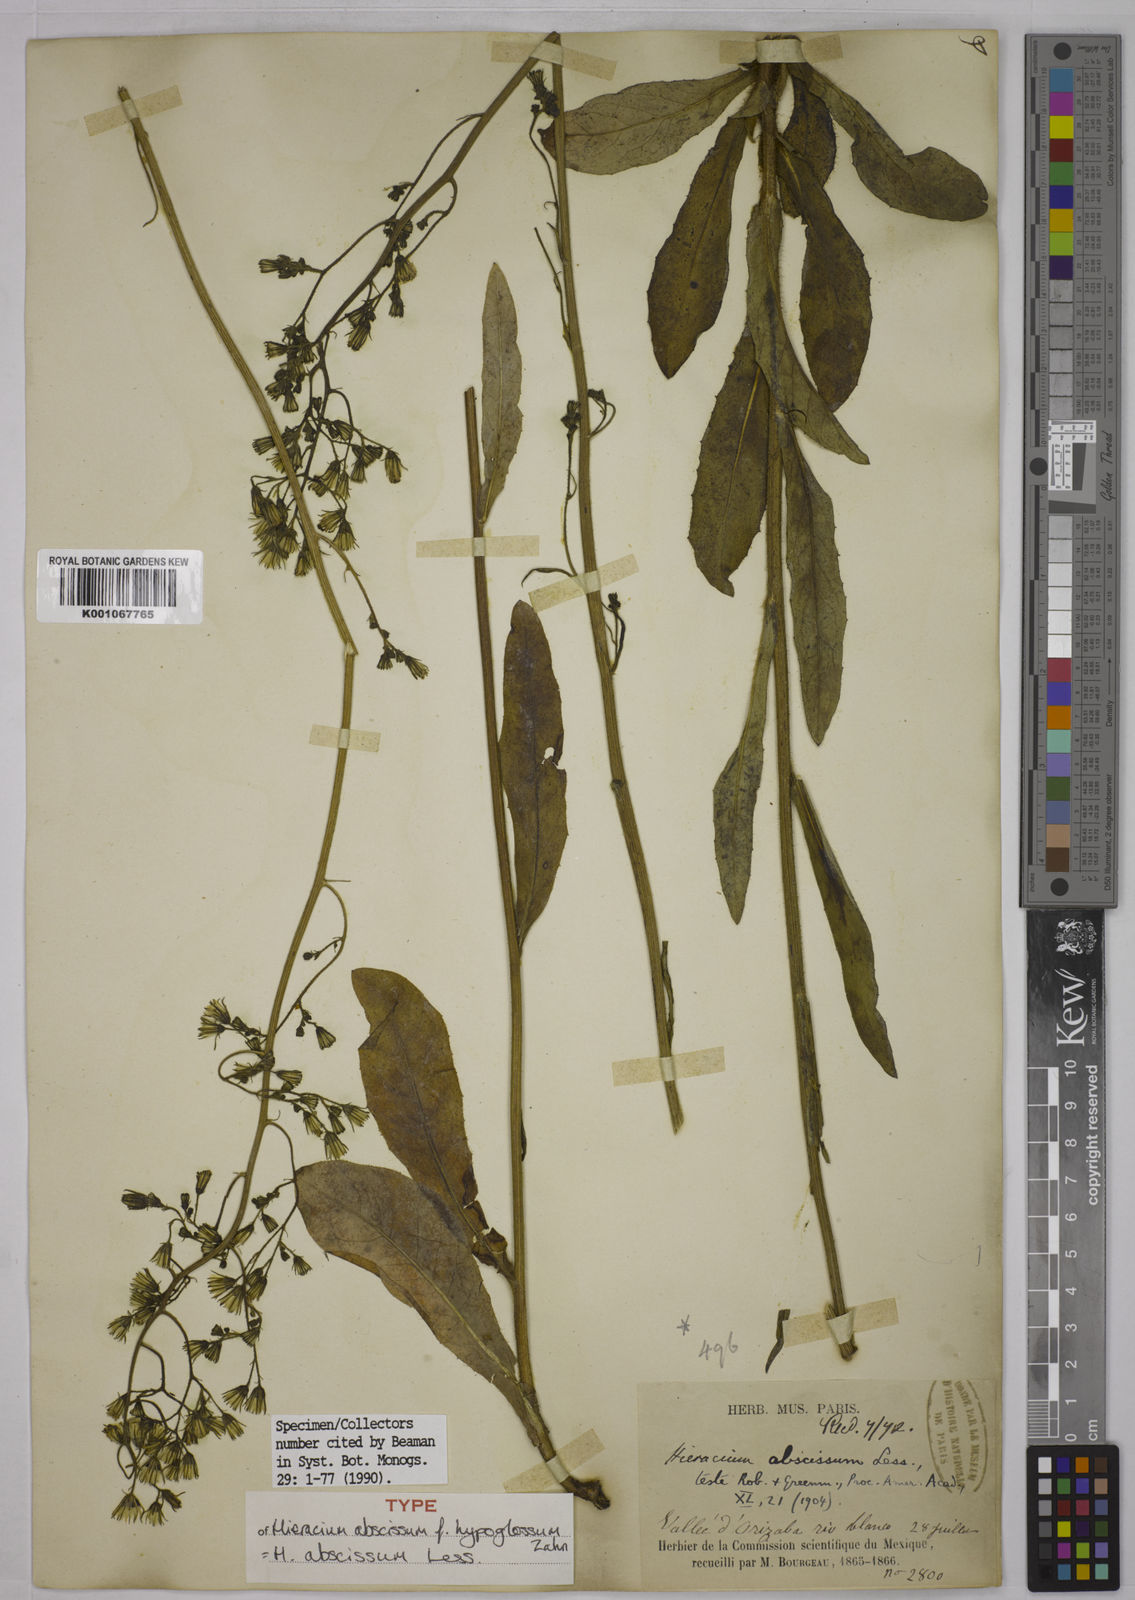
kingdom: Plantae
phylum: Tracheophyta
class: Magnoliopsida
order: Asterales
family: Asteraceae
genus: Hieracium
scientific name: Hieracium abscissum
